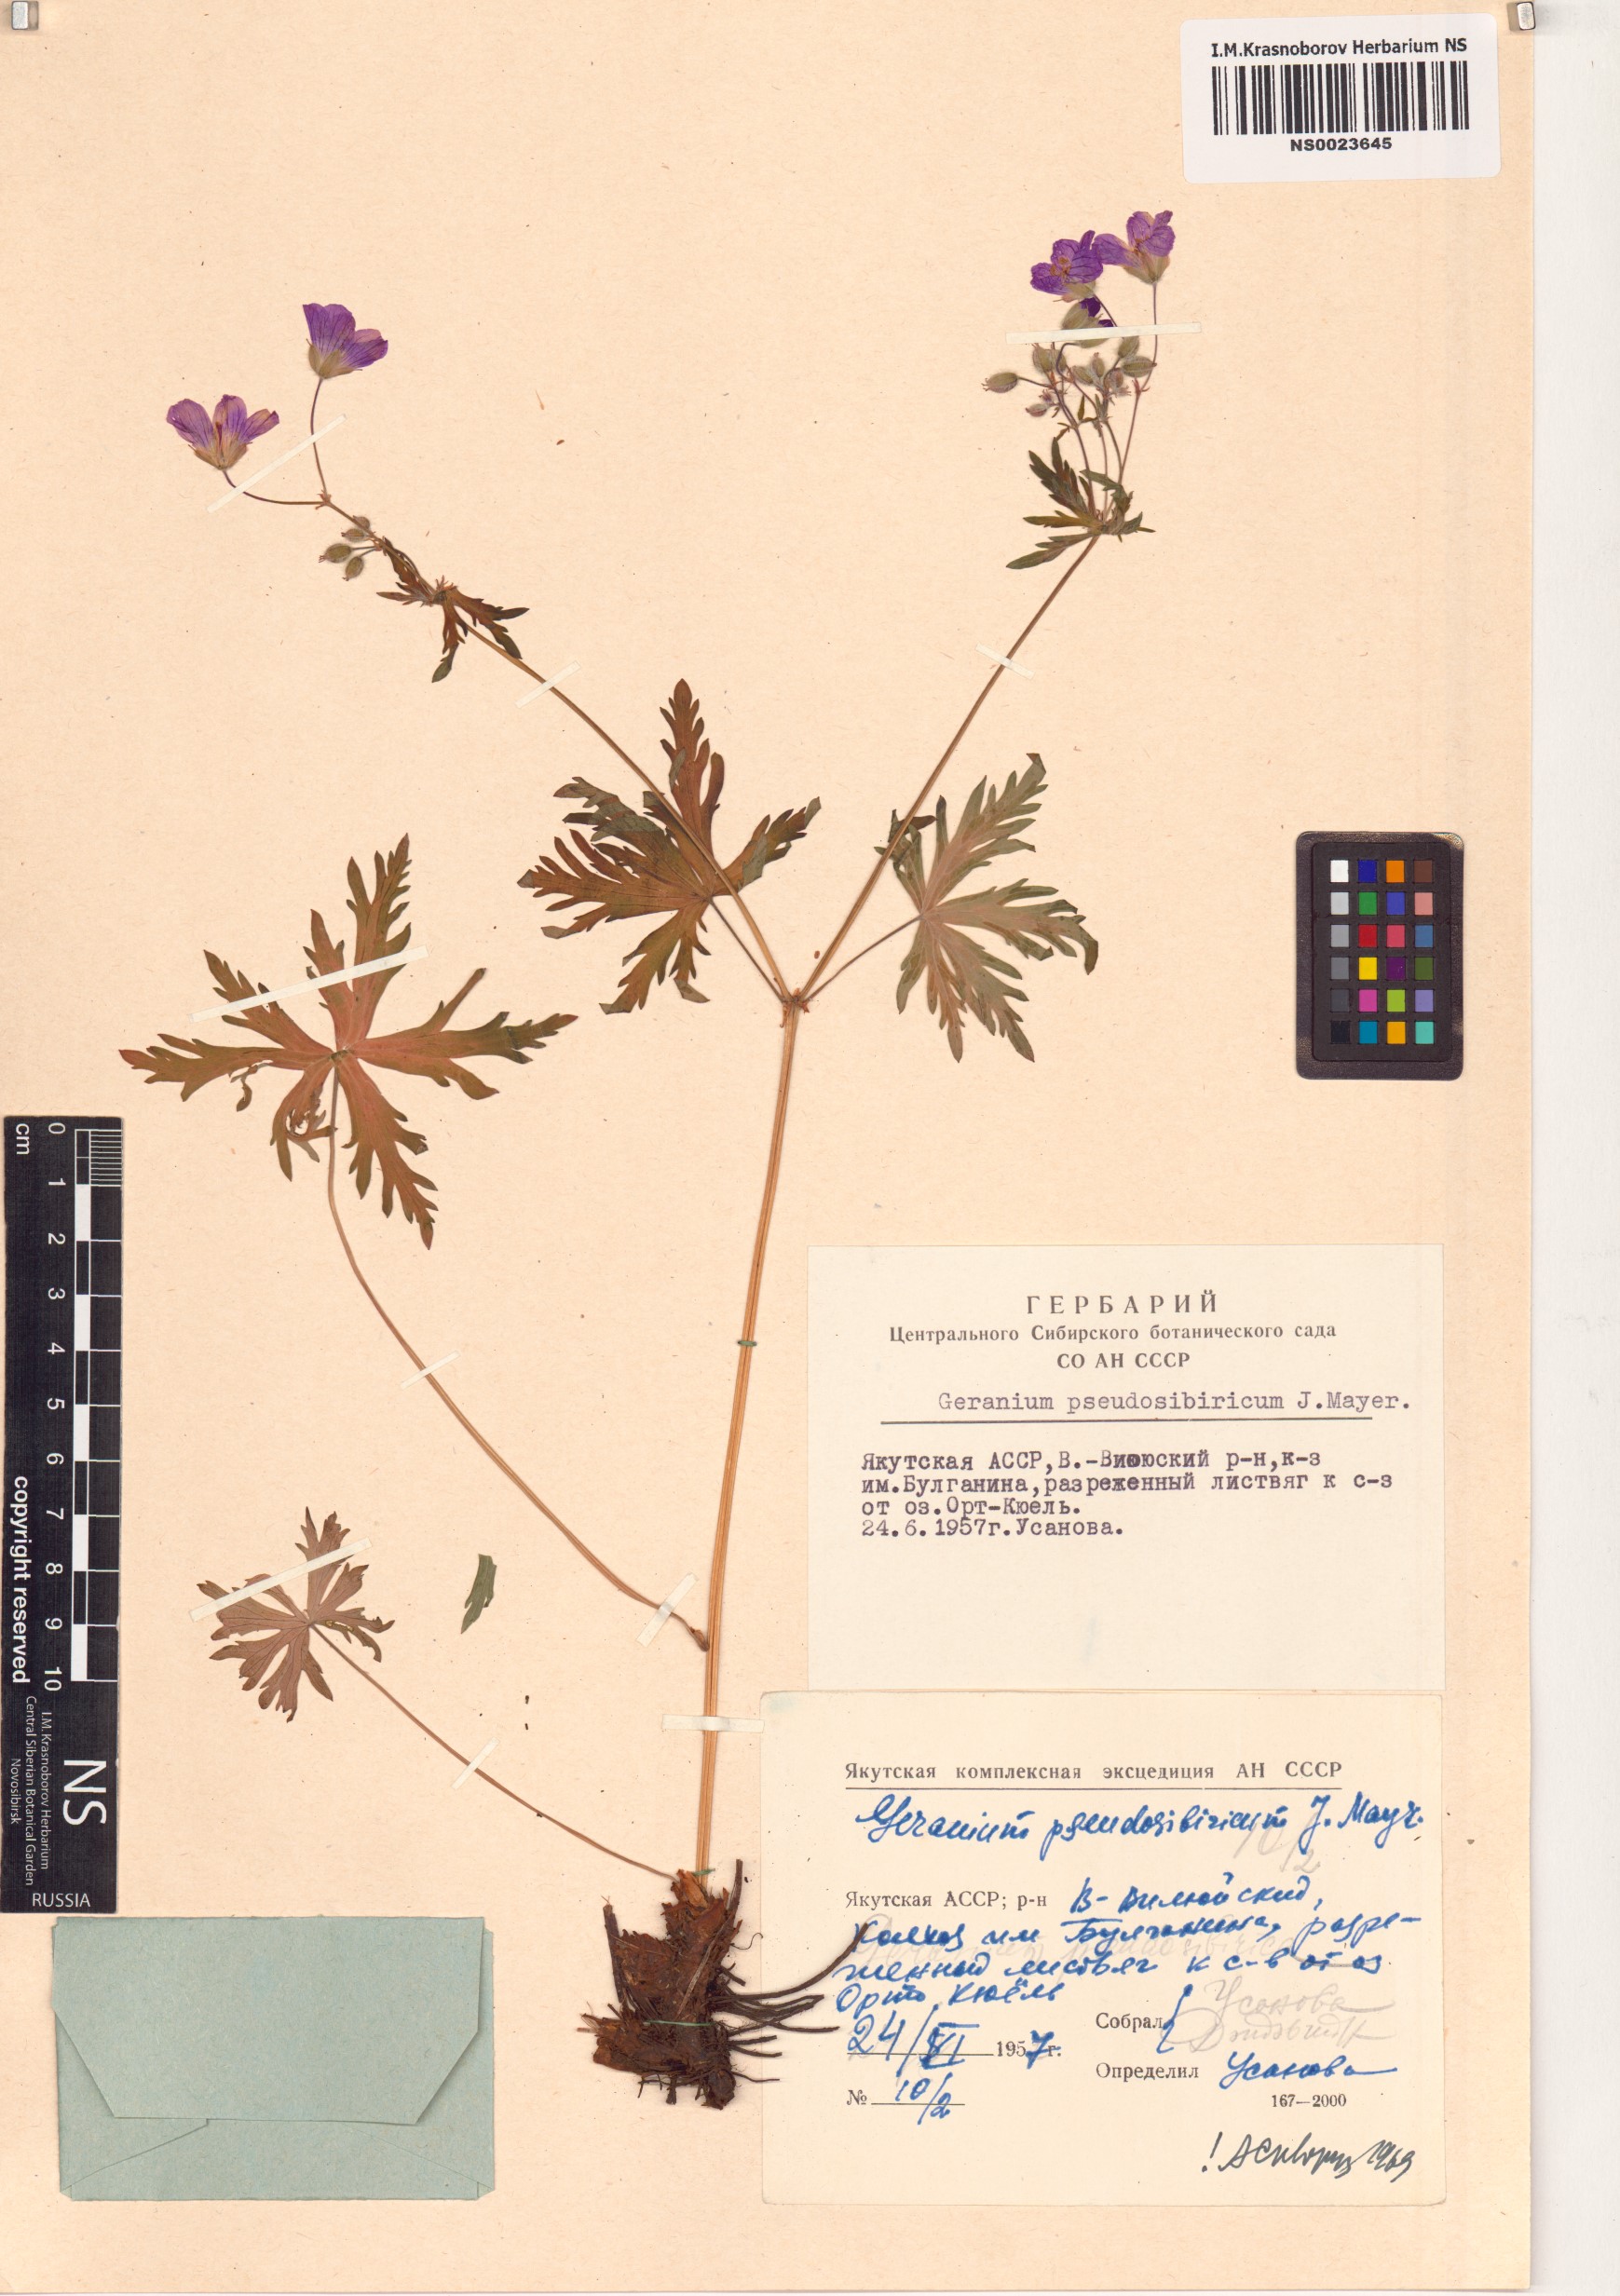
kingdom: Plantae
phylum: Tracheophyta
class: Magnoliopsida
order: Geraniales
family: Geraniaceae
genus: Geranium
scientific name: Geranium pseudosibiricum
